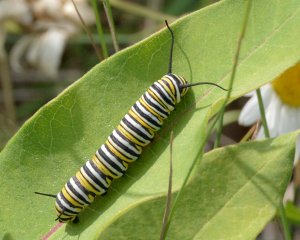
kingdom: Animalia
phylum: Arthropoda
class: Insecta
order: Lepidoptera
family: Nymphalidae
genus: Danaus
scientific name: Danaus plexippus
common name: Monarch
